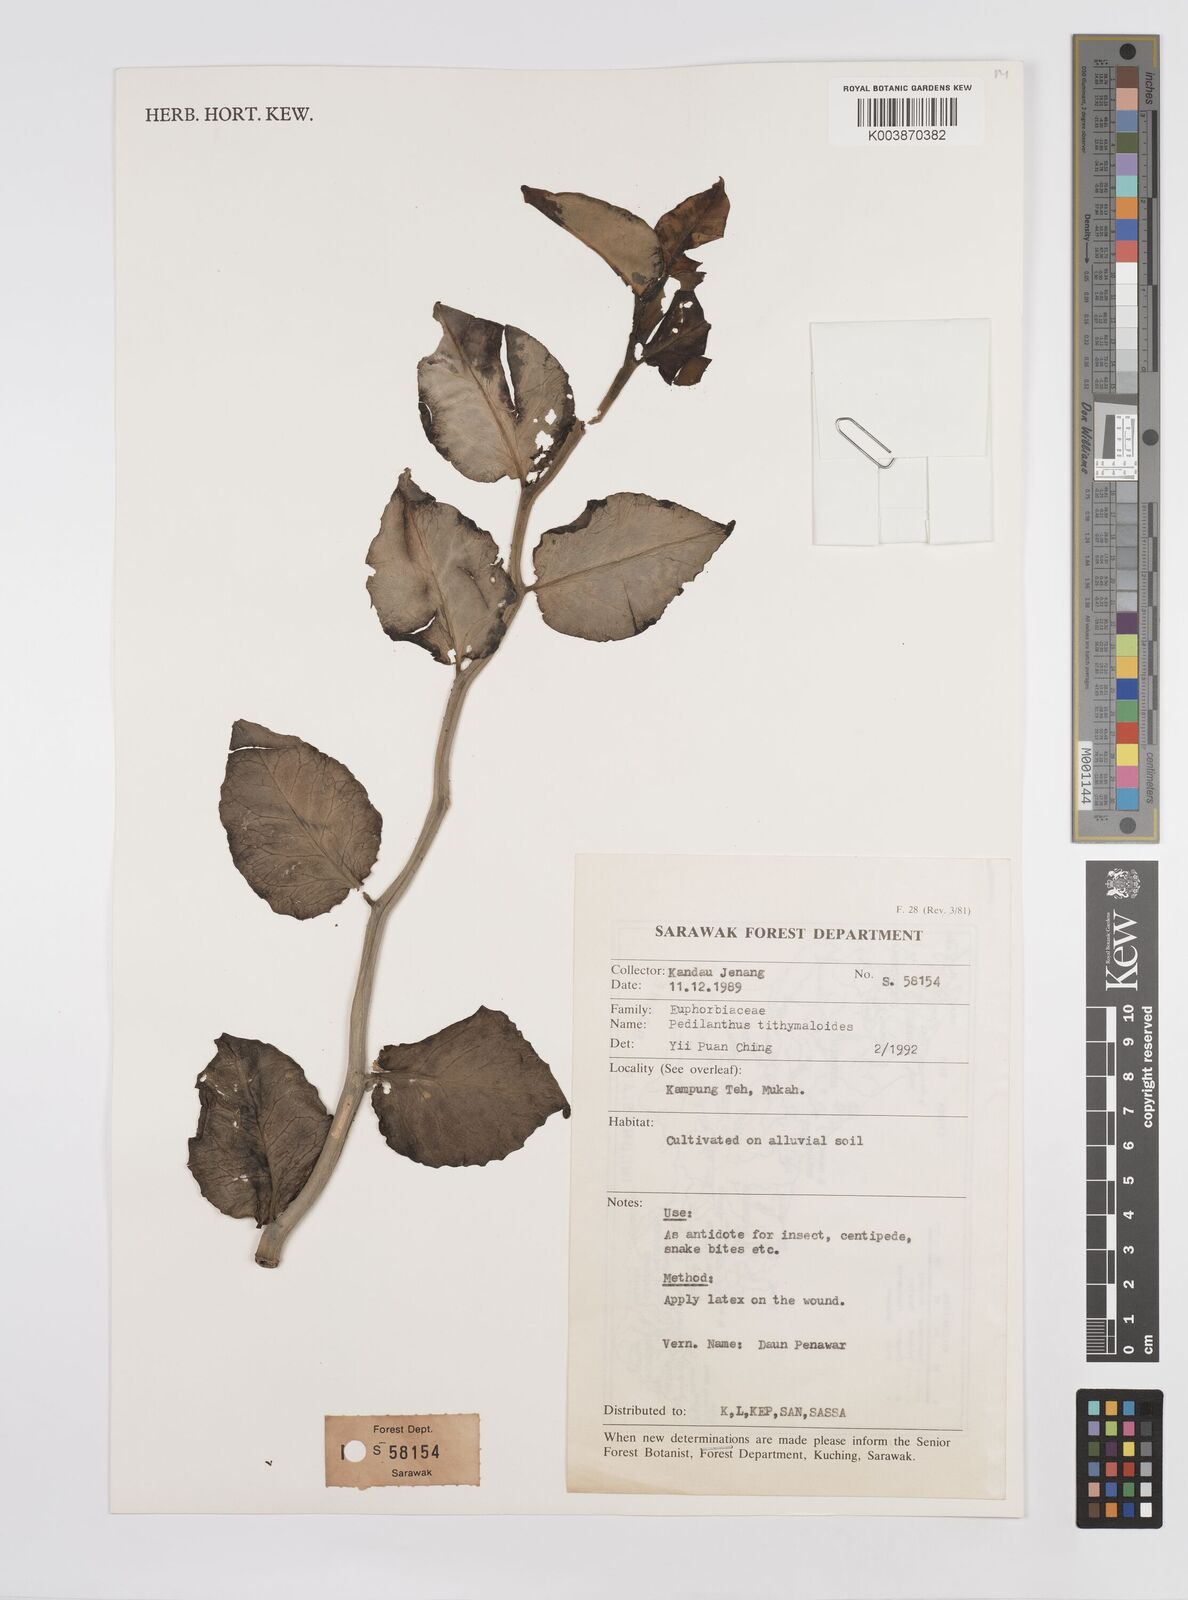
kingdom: Plantae
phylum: Tracheophyta
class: Magnoliopsida
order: Malpighiales
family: Euphorbiaceae
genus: Euphorbia
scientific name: Euphorbia tithymaloides
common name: Slipperplant
